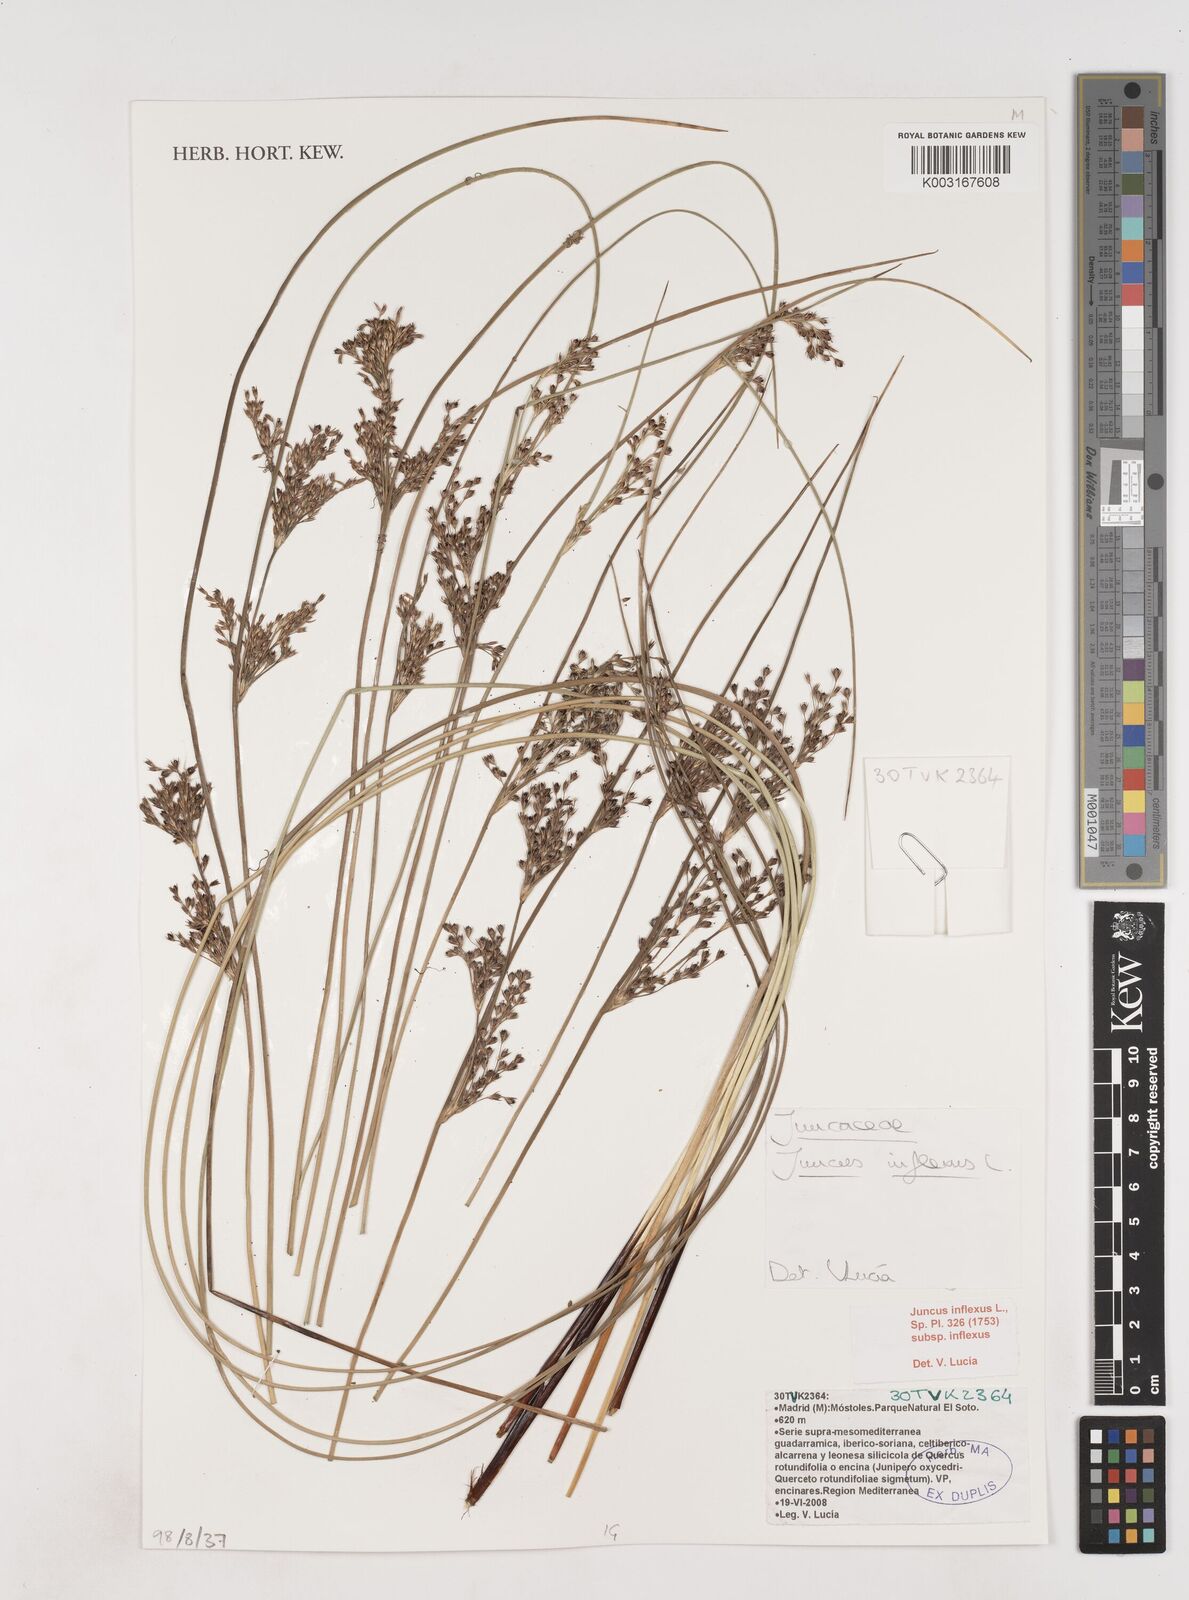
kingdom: Plantae
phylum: Tracheophyta
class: Liliopsida
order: Poales
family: Juncaceae
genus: Juncus
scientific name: Juncus inflexus
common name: Hard rush
